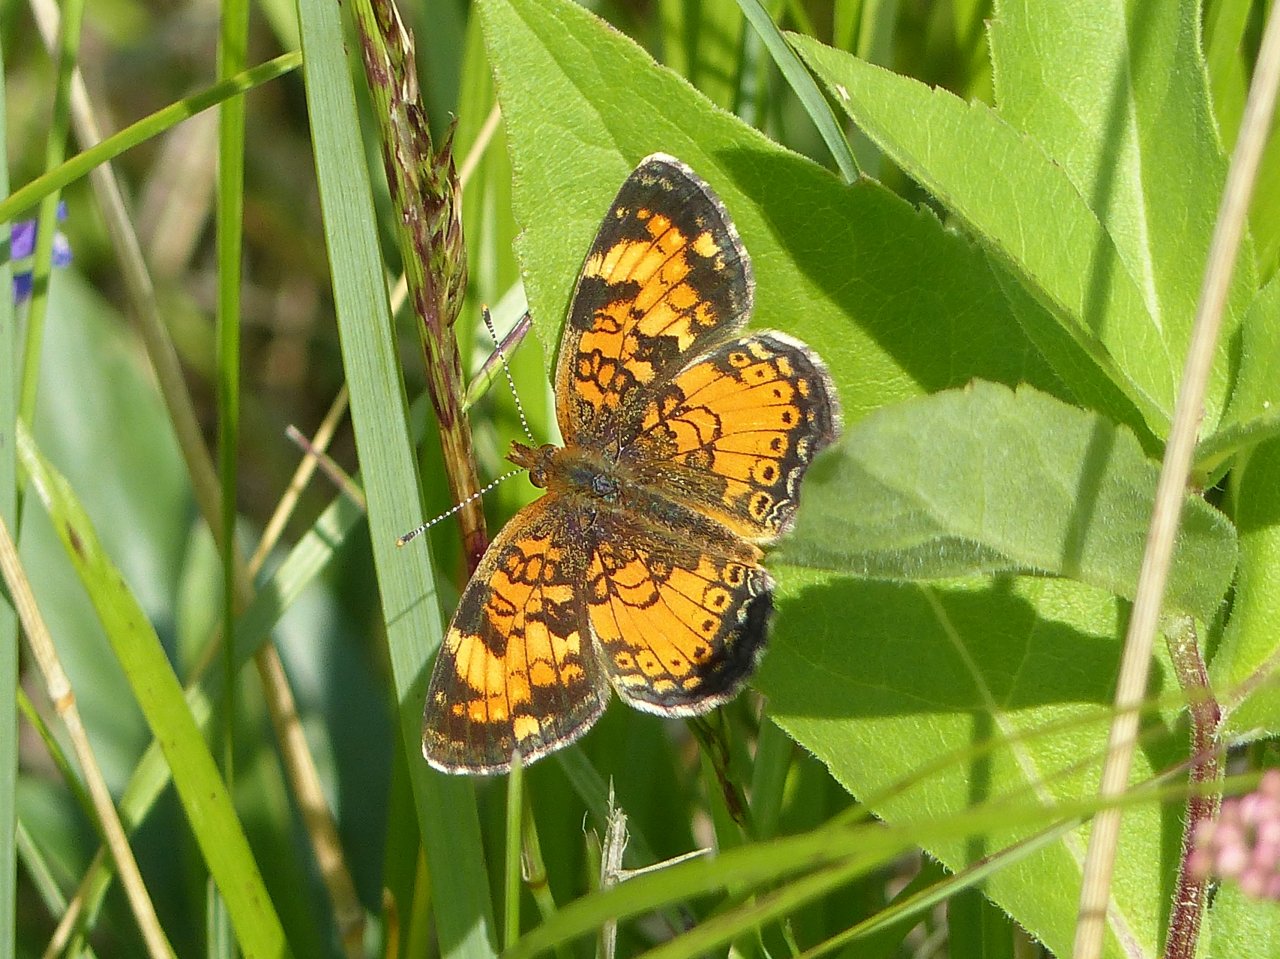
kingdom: Animalia
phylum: Arthropoda
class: Insecta
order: Lepidoptera
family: Nymphalidae
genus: Phyciodes
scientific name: Phyciodes tharos
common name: Northern Crescent
